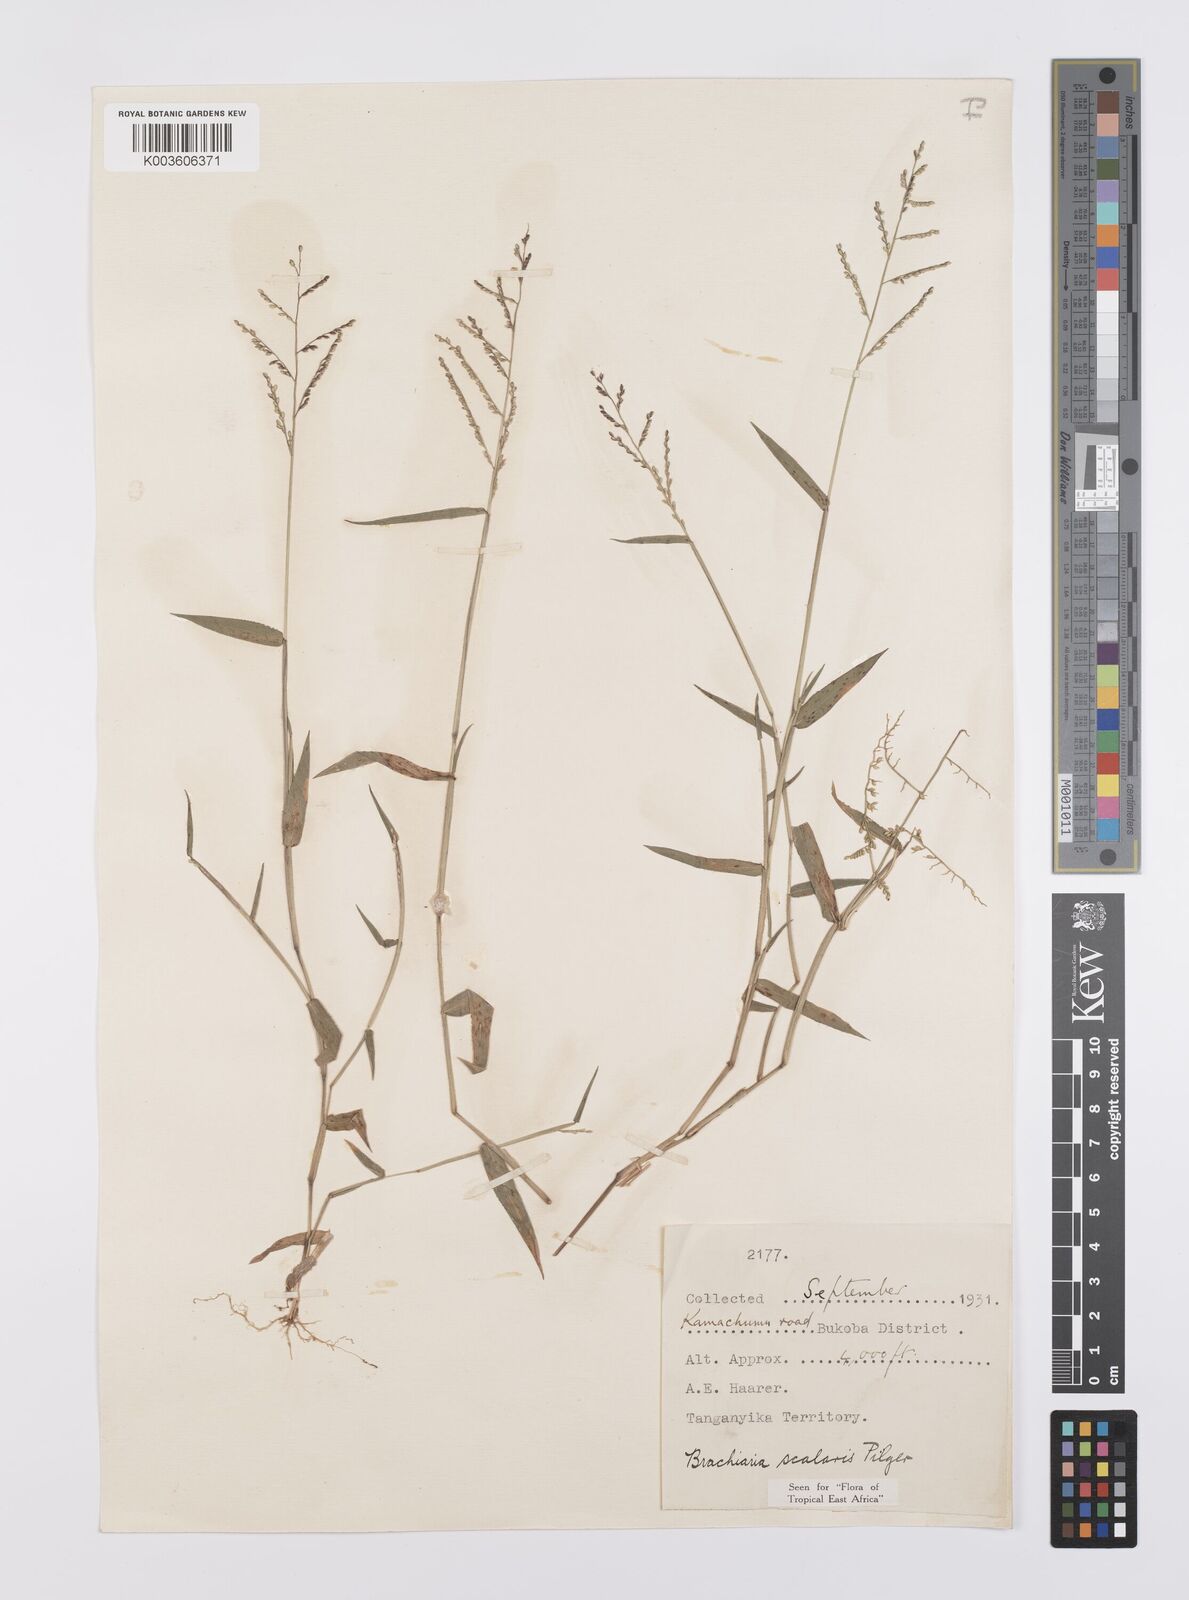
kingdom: Plantae
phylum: Tracheophyta
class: Liliopsida
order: Poales
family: Poaceae
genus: Urochloa
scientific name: Urochloa comata
